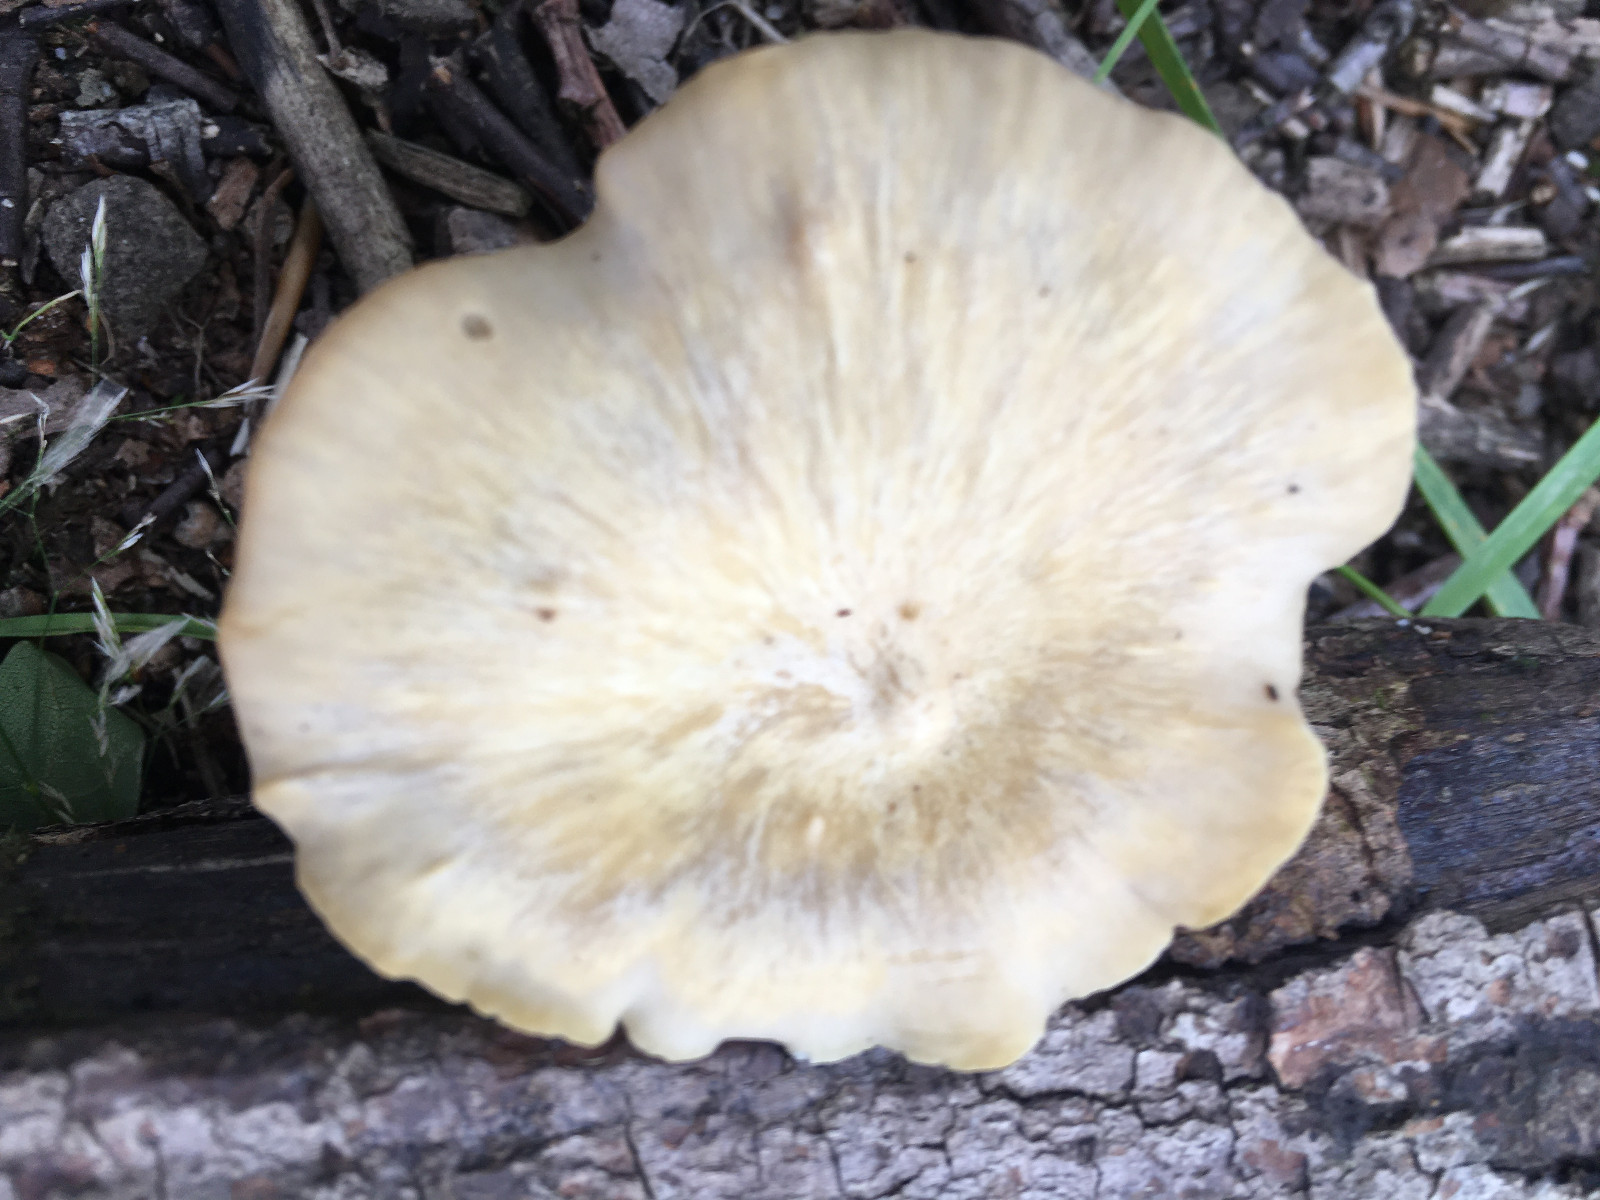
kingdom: Fungi
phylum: Basidiomycota
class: Agaricomycetes
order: Polyporales
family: Polyporaceae
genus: Cerioporus
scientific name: Cerioporus varius
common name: foranderlig stilkporesvamp
